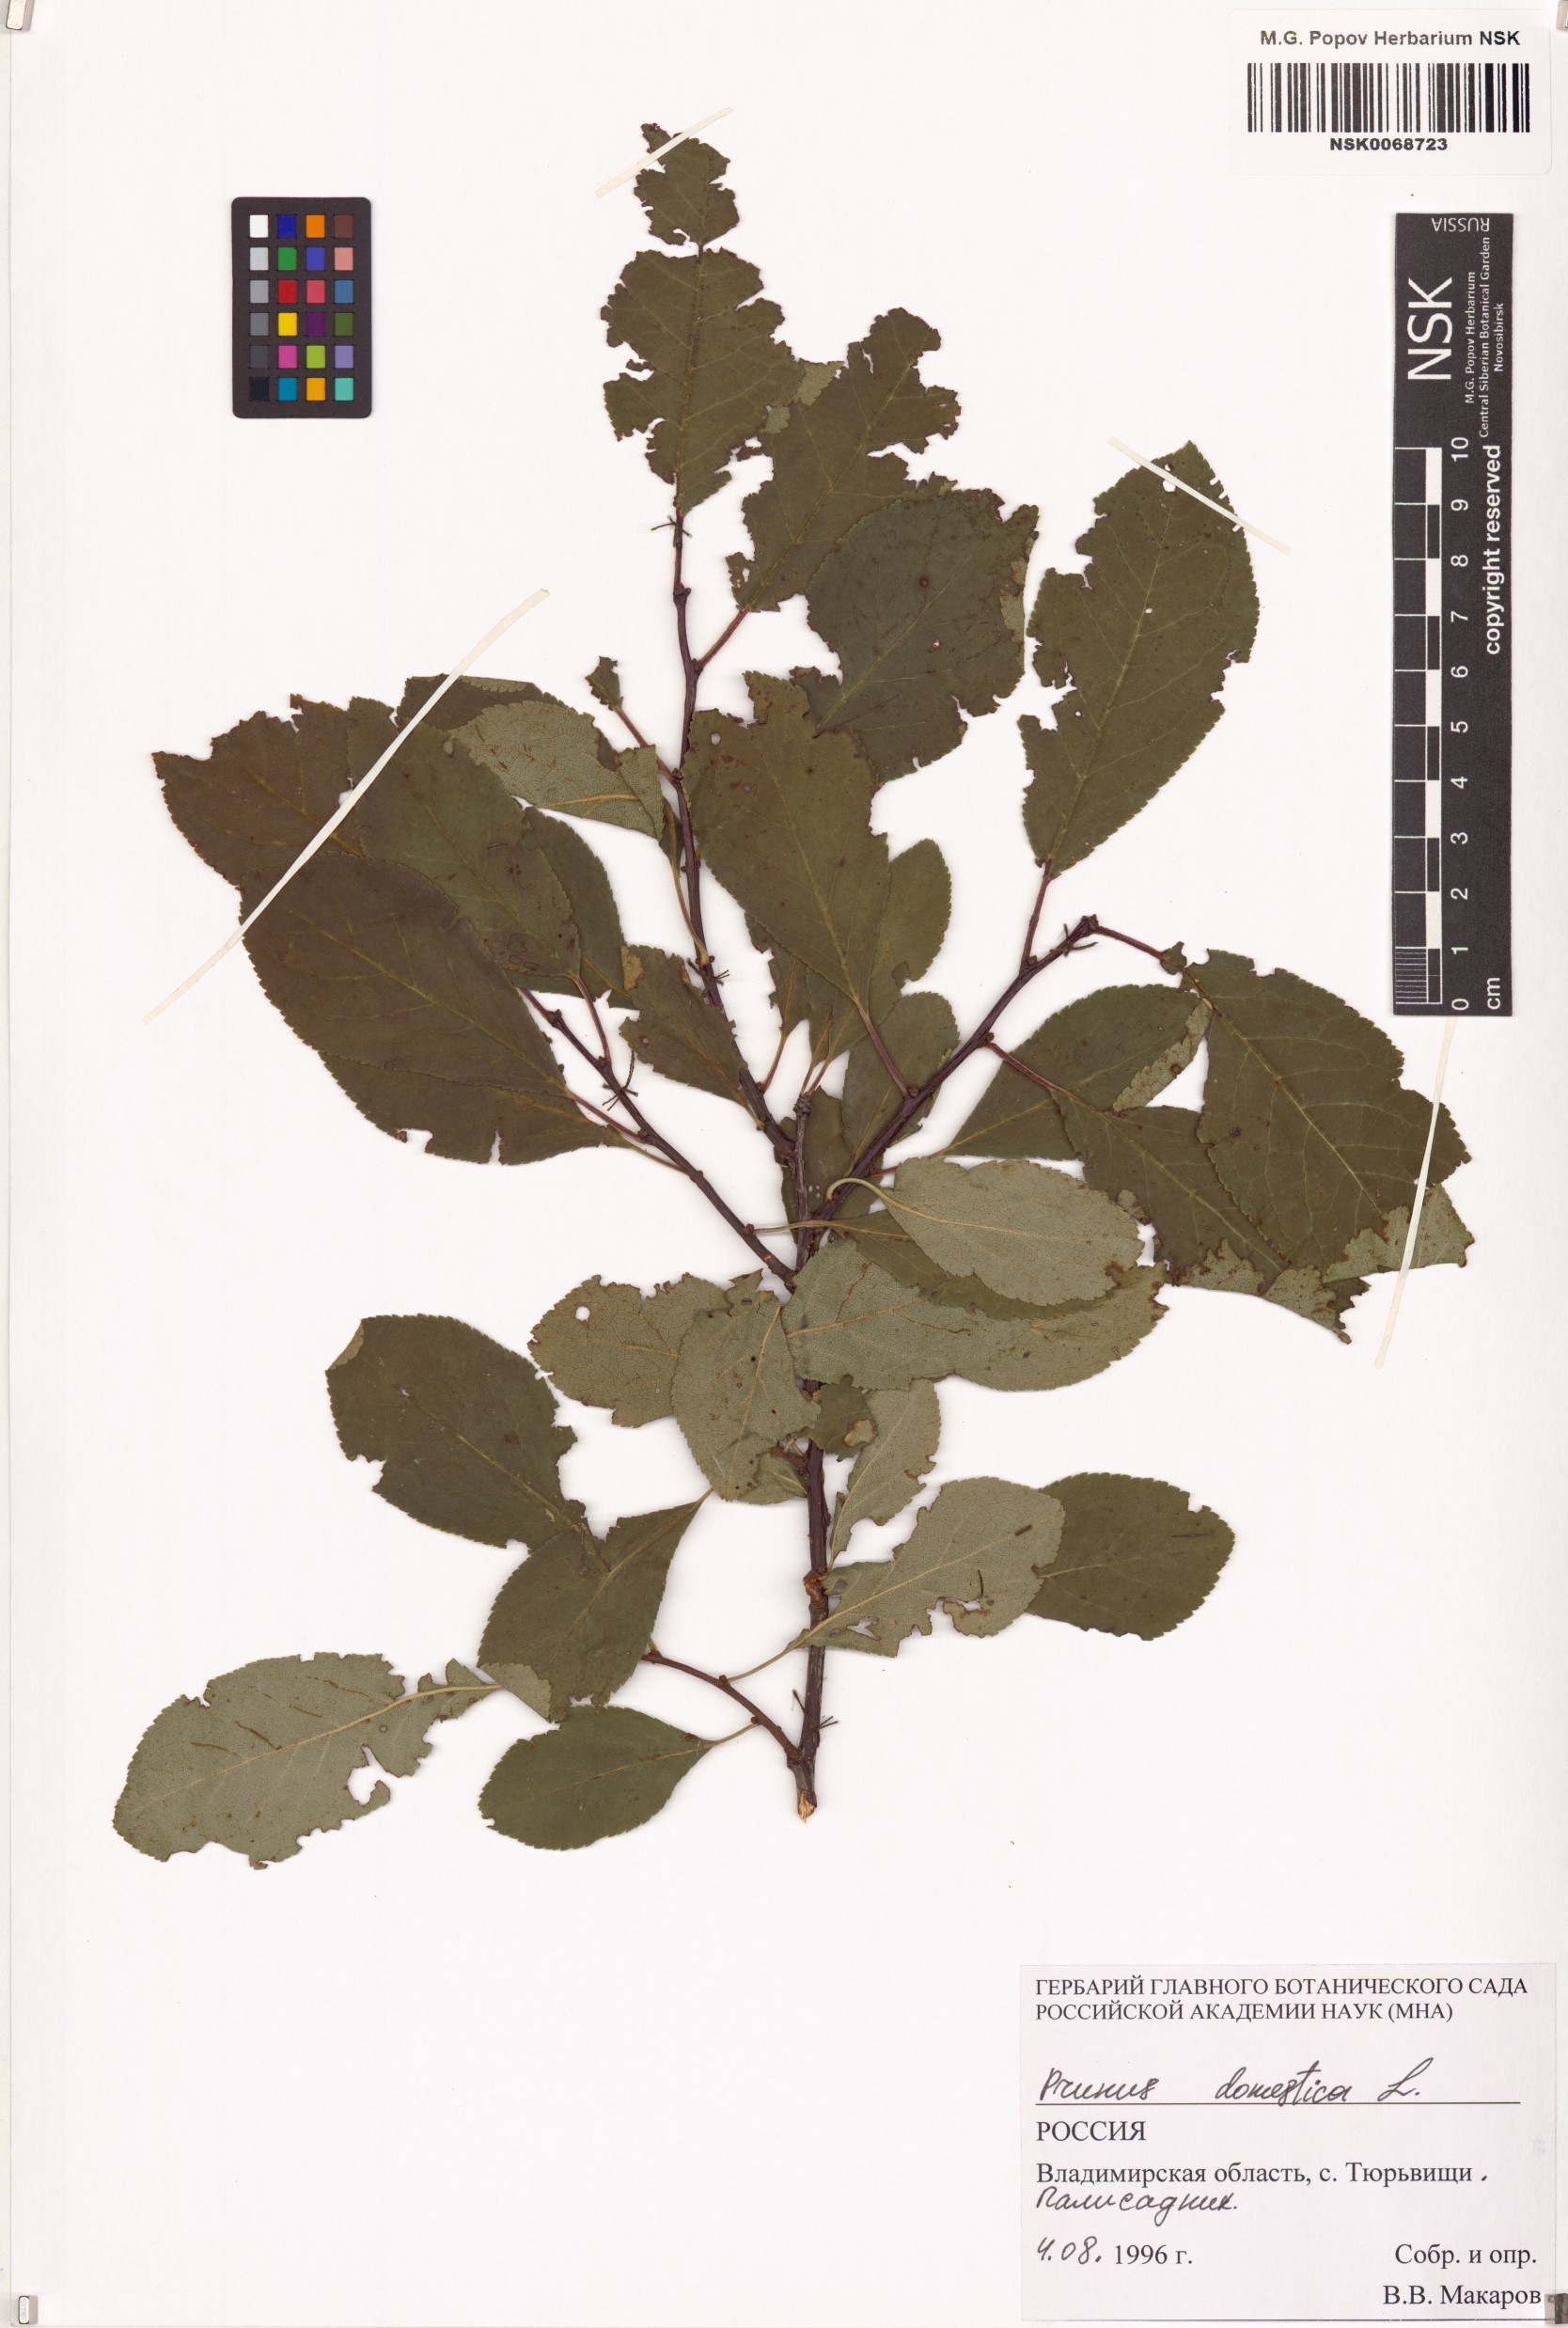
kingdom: Plantae
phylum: Tracheophyta
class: Magnoliopsida
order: Rosales
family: Rosaceae
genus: Prunus
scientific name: Prunus domestica
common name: Wild plum
